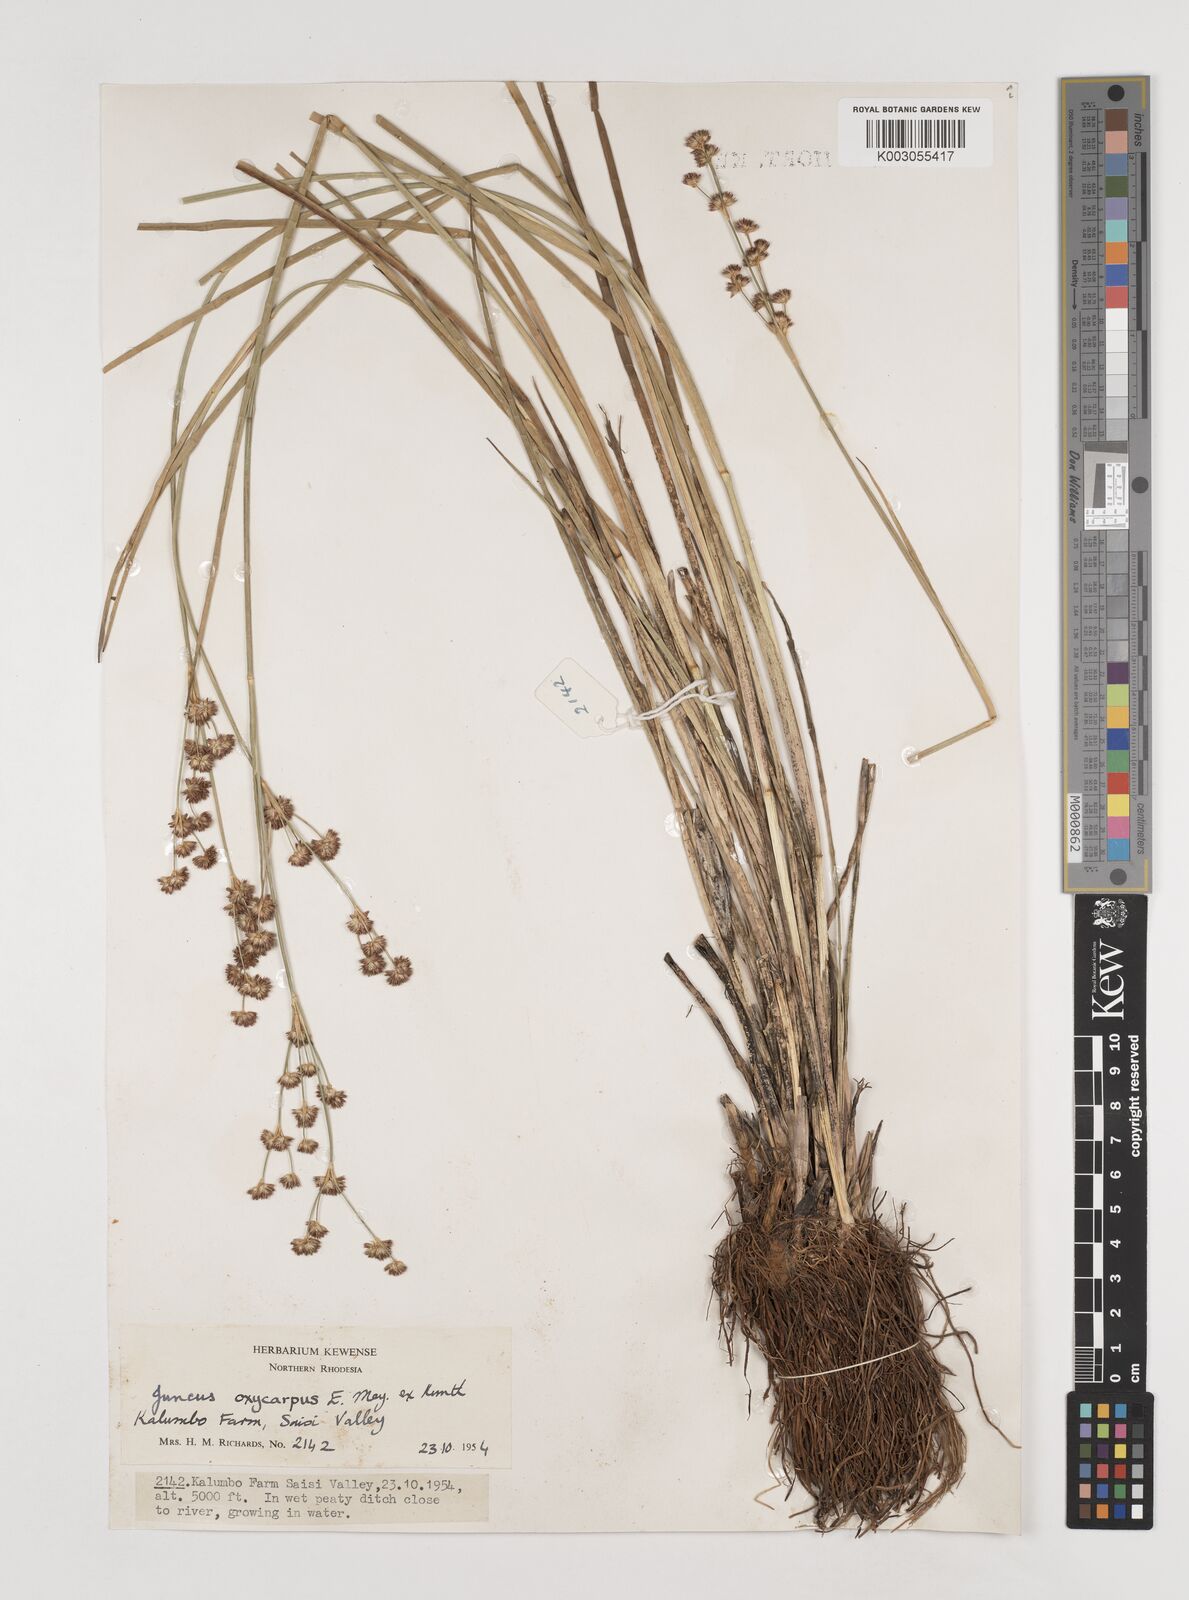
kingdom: Plantae
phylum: Tracheophyta
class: Liliopsida
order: Poales
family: Juncaceae
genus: Juncus
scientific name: Juncus oxycarpus
